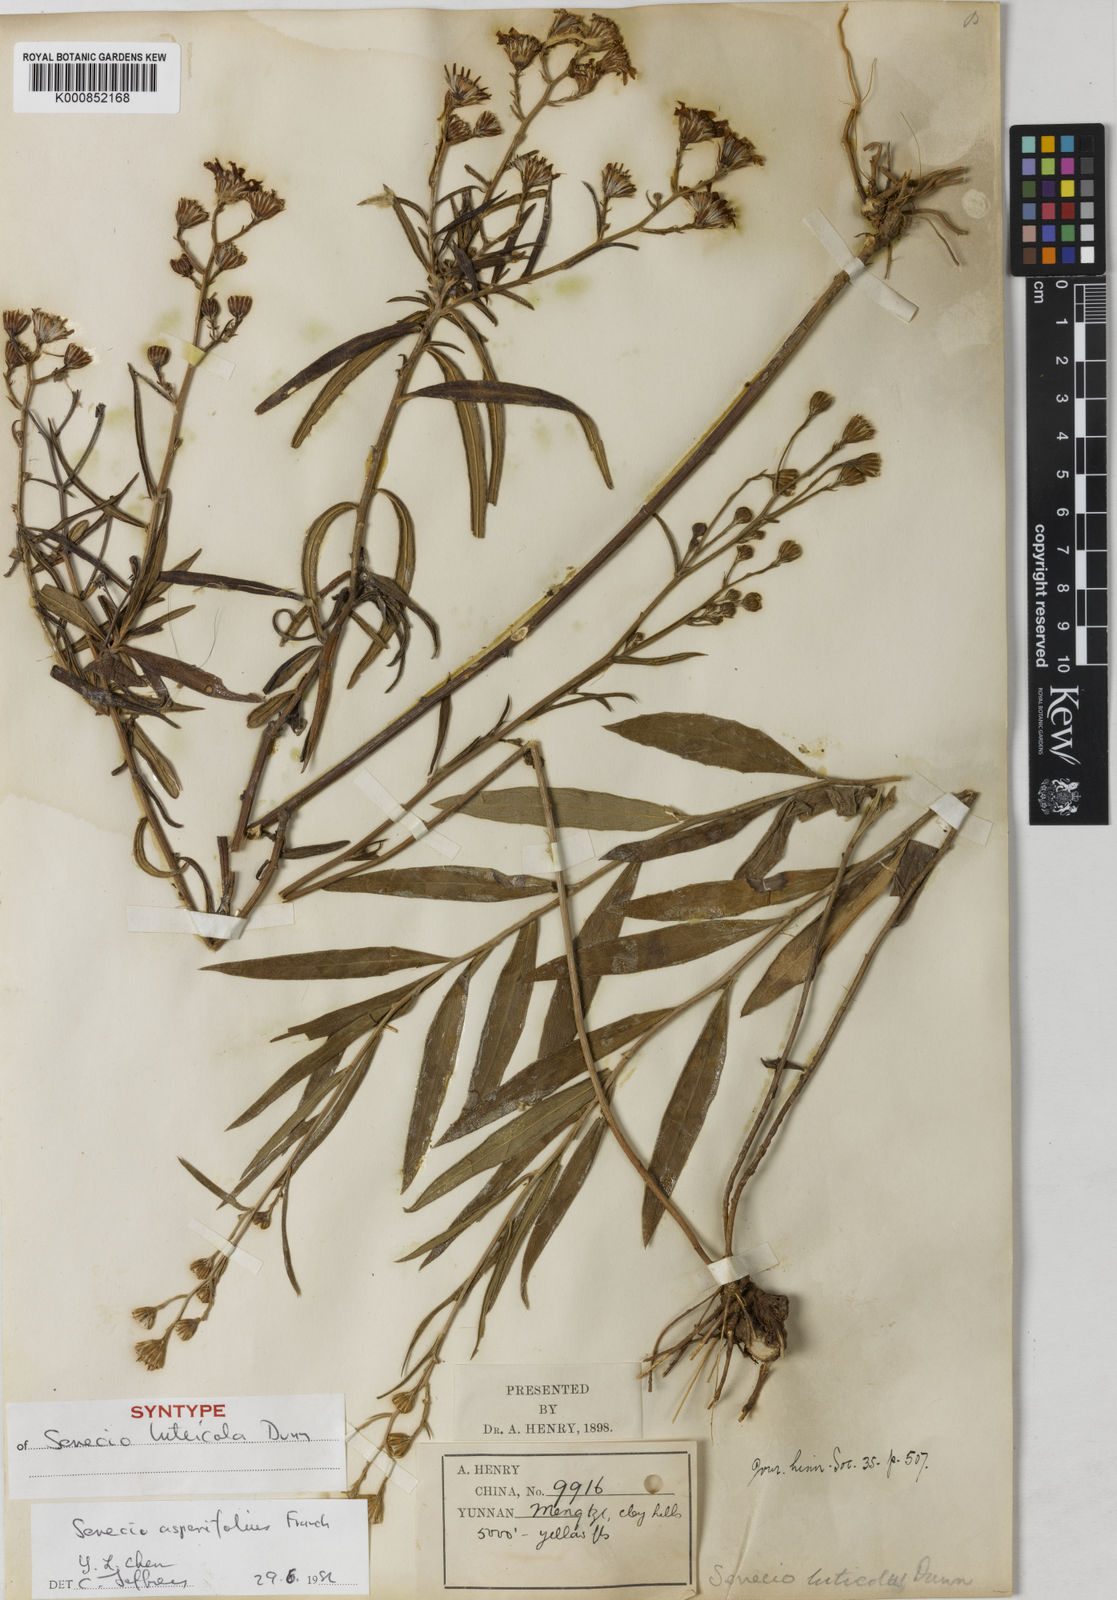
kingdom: Plantae
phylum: Tracheophyta
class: Magnoliopsida
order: Asterales
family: Asteraceae
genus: Senecio
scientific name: Senecio asperifolius
